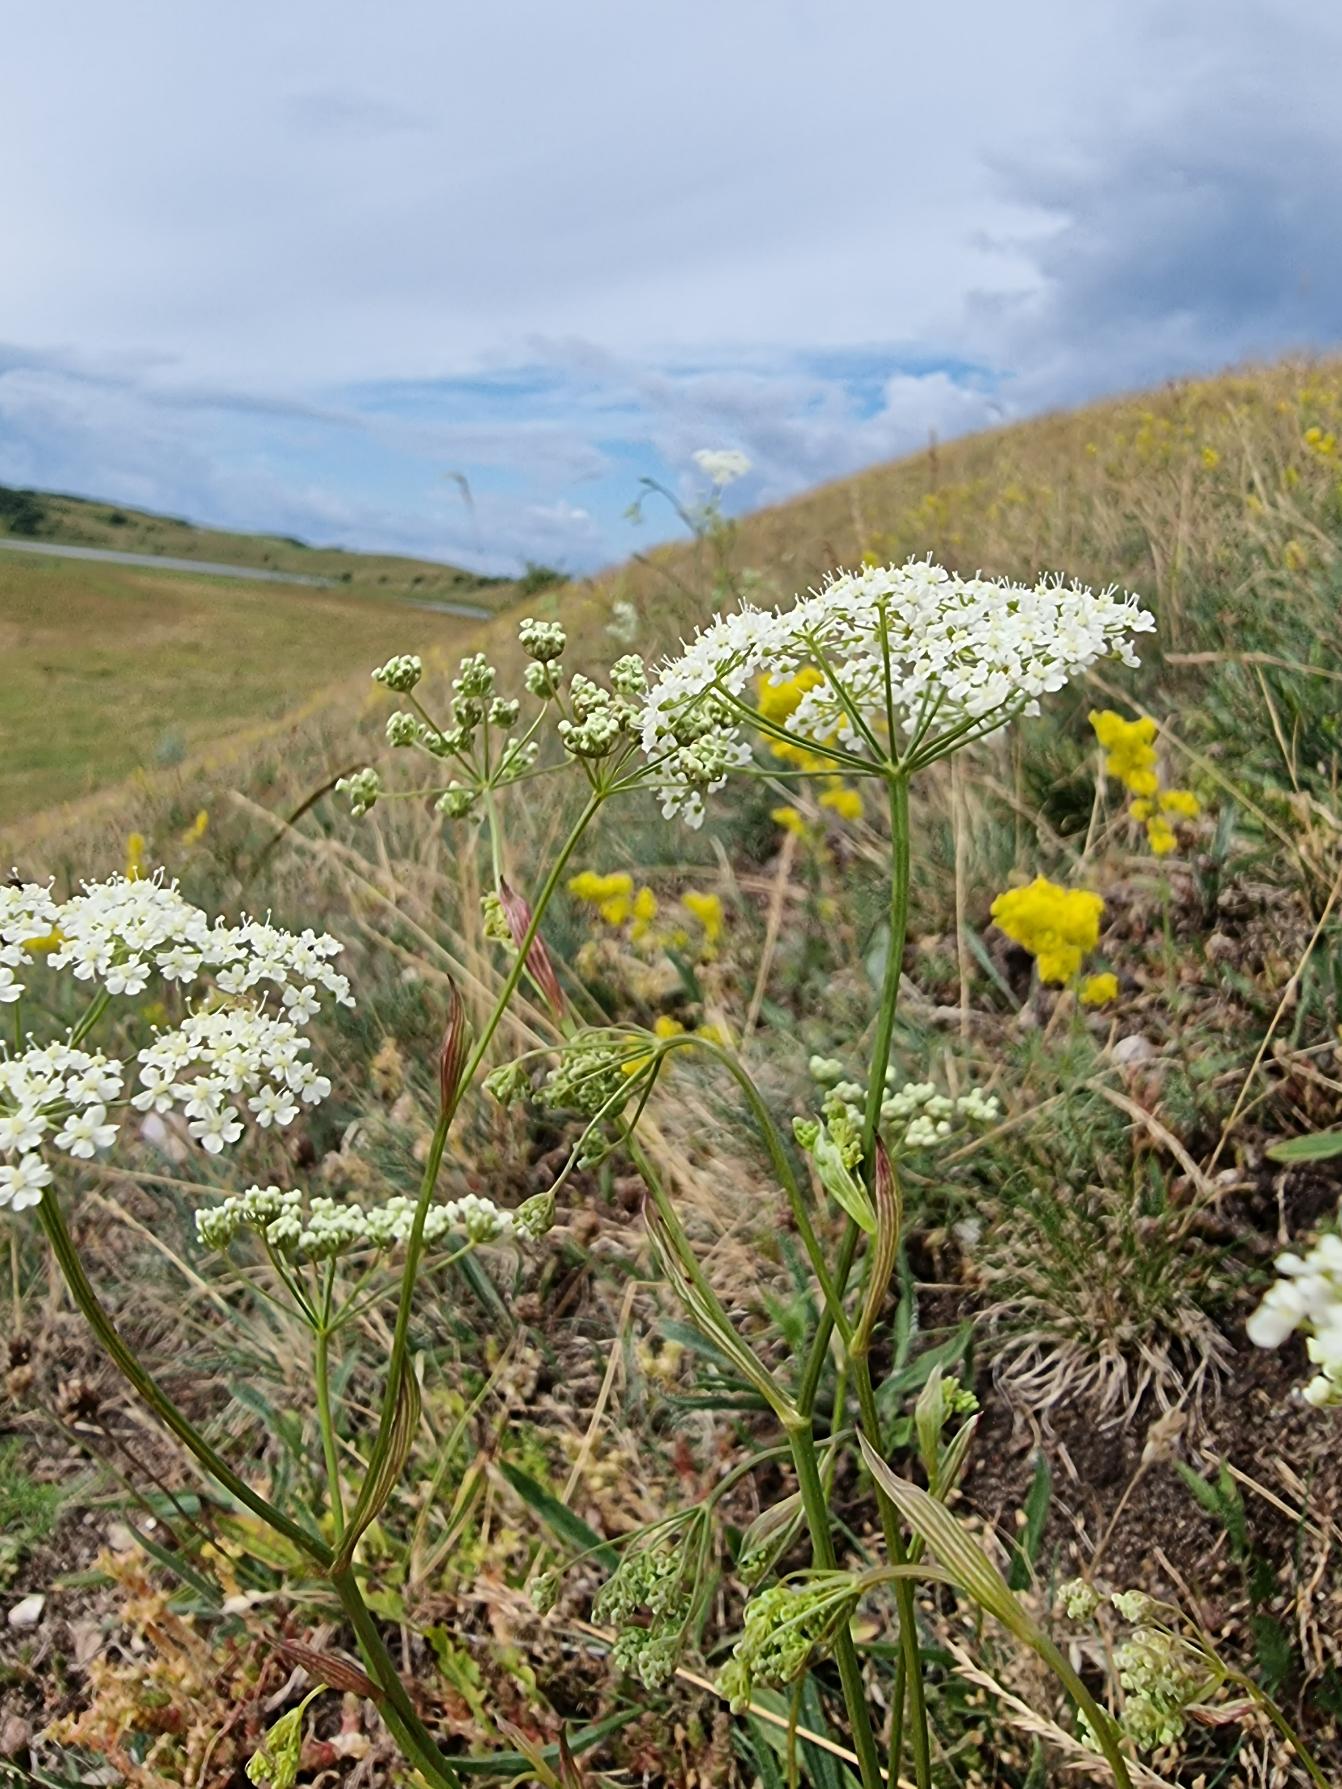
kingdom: Plantae
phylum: Tracheophyta
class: Magnoliopsida
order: Apiales
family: Apiaceae
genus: Pimpinella
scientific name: Pimpinella saxifraga
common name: Almindelig pimpinelle
